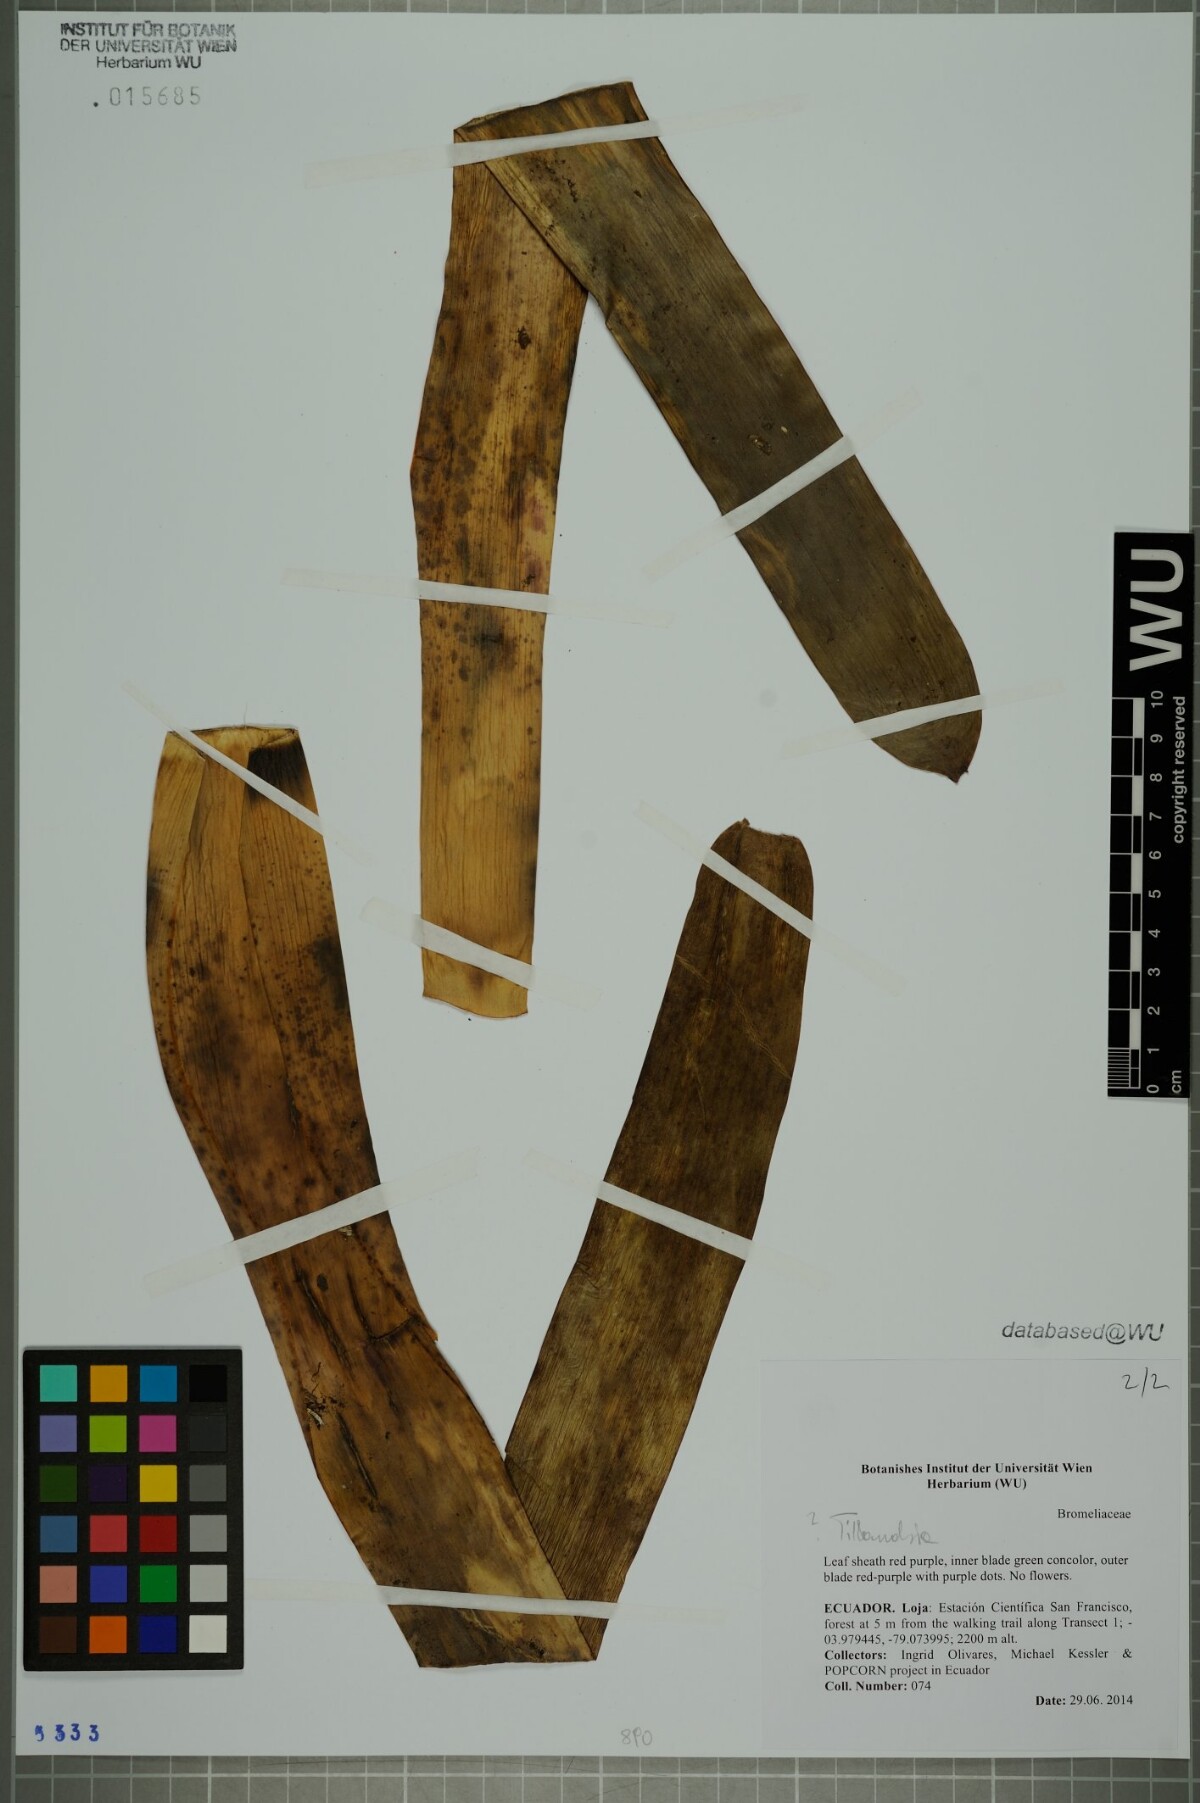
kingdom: Plantae
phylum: Tracheophyta
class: Liliopsida
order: Poales
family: Bromeliaceae
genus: Tillandsia
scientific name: Tillandsia
